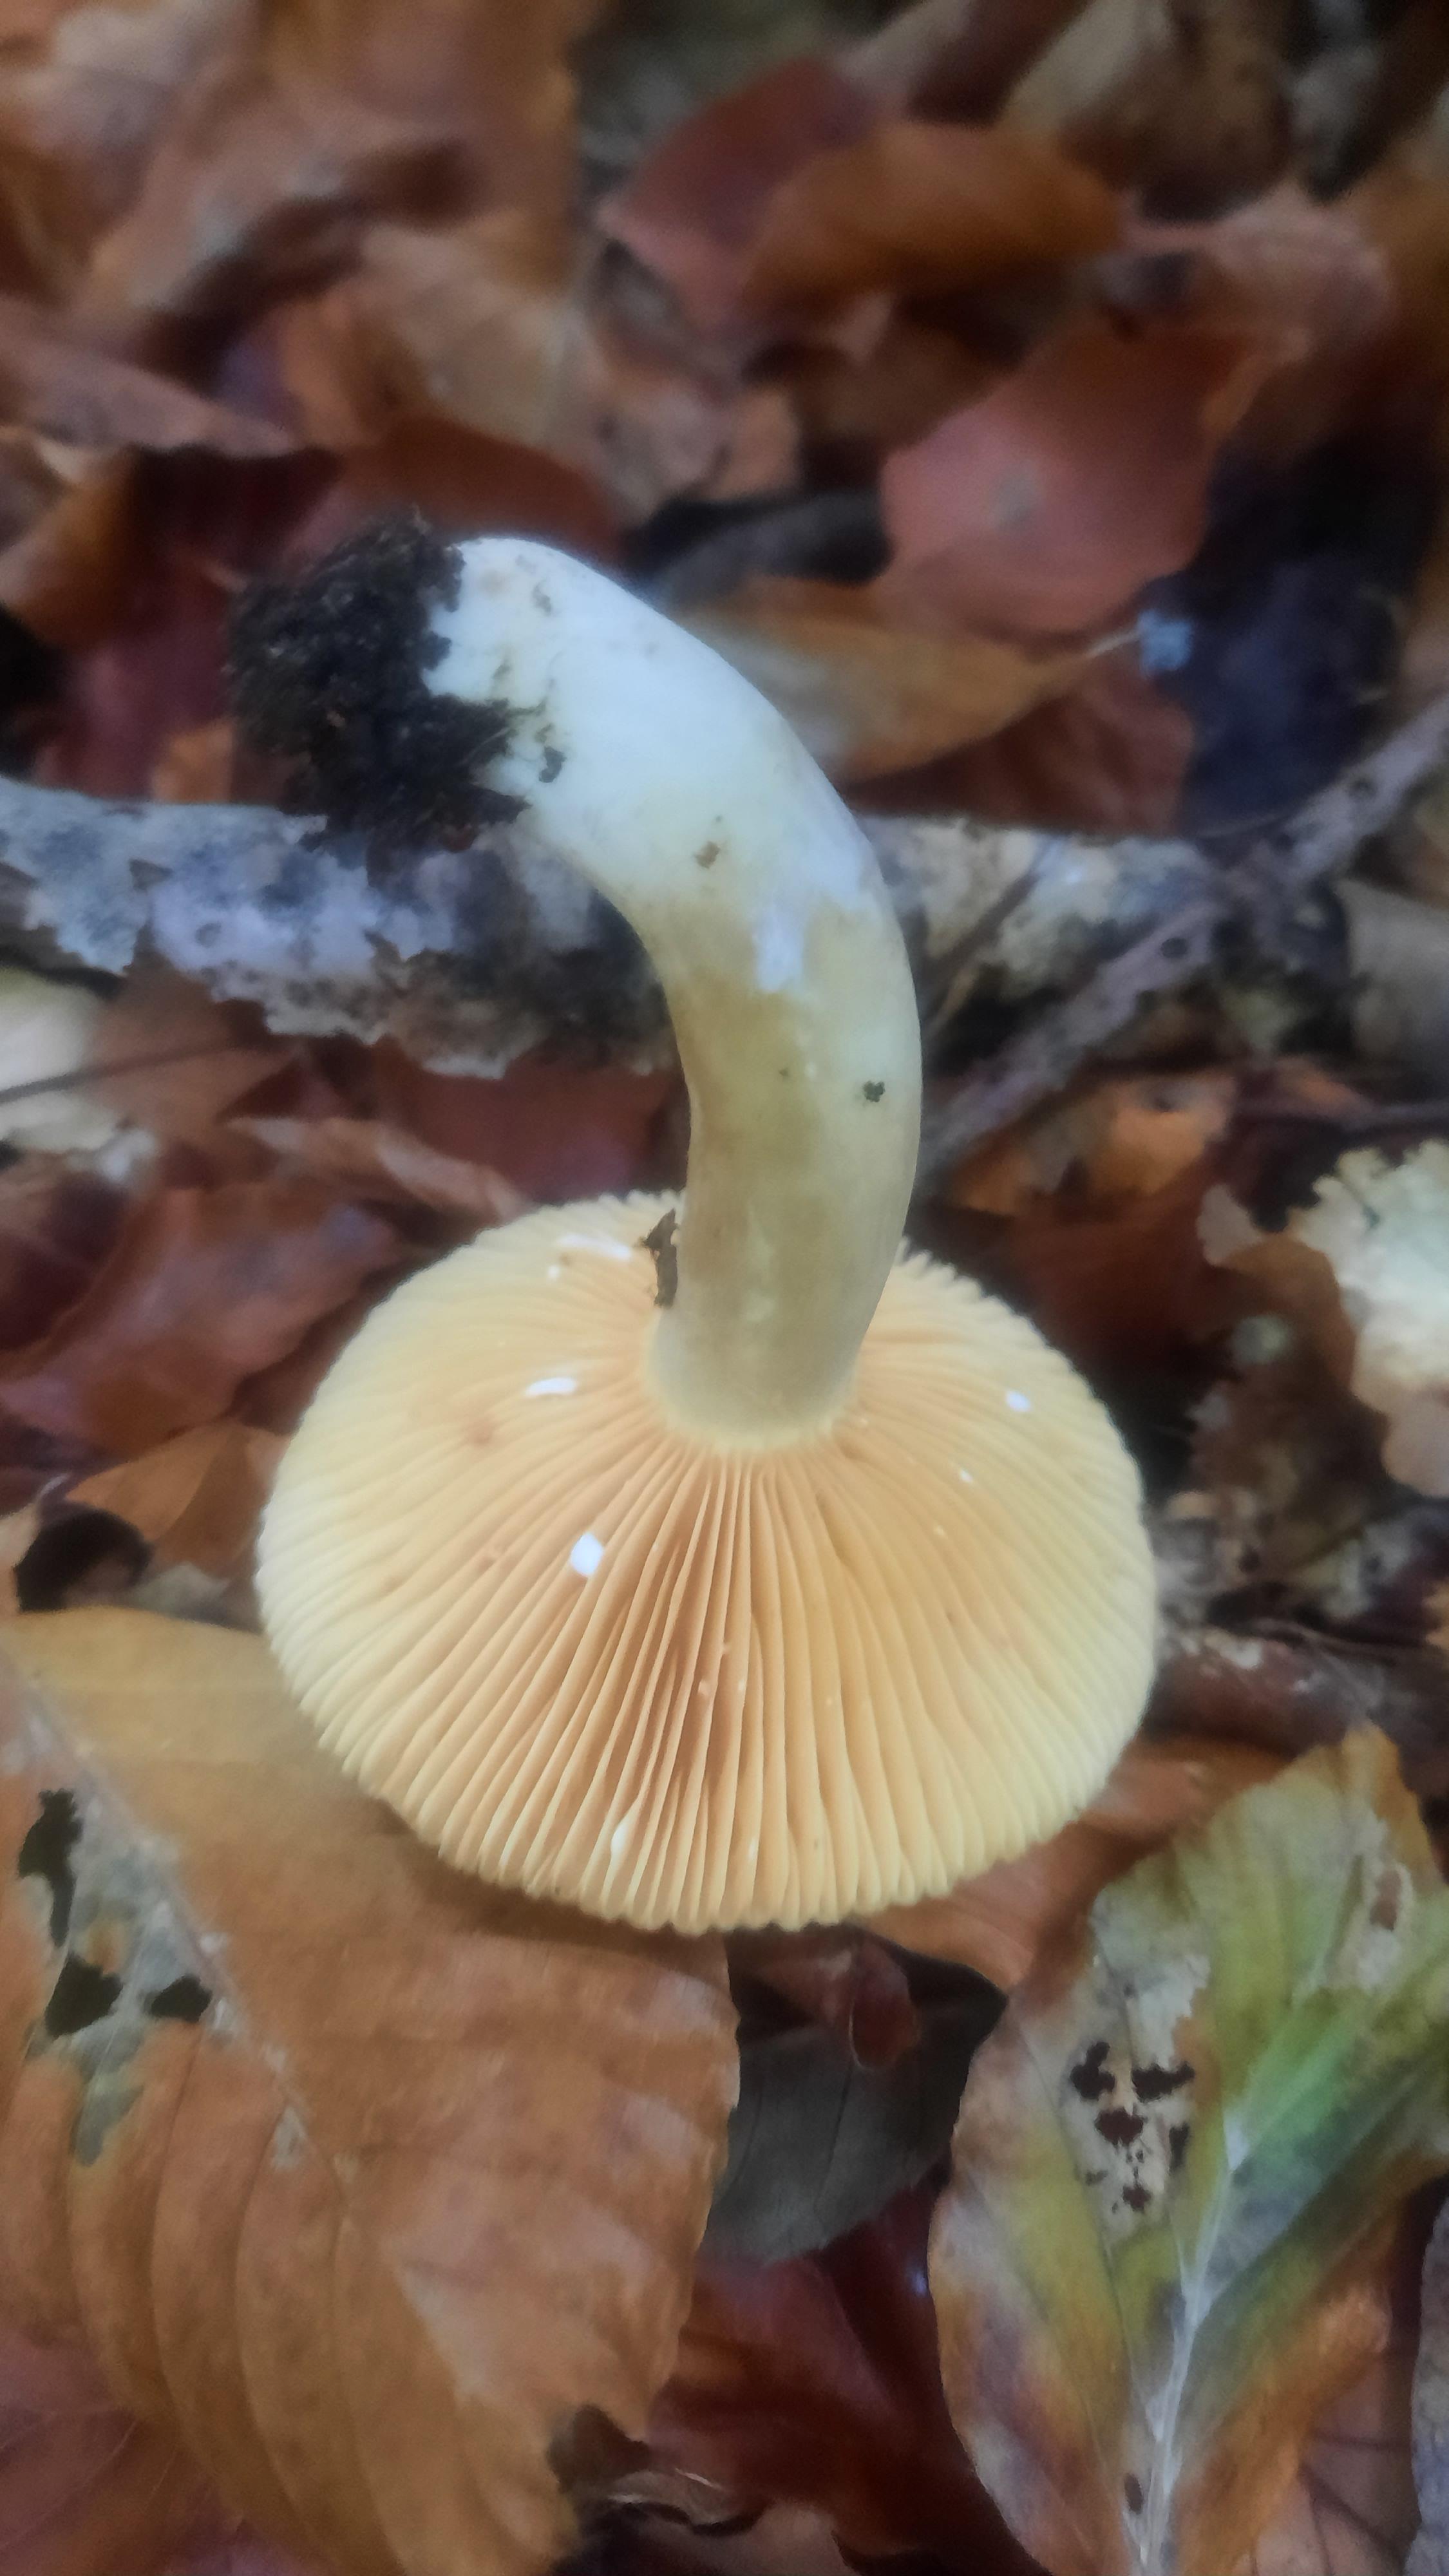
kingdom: Fungi
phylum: Basidiomycota
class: Agaricomycetes
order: Russulales
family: Russulaceae
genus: Lactarius
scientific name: Lactarius pterosporus
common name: vingesporet mælkehat
